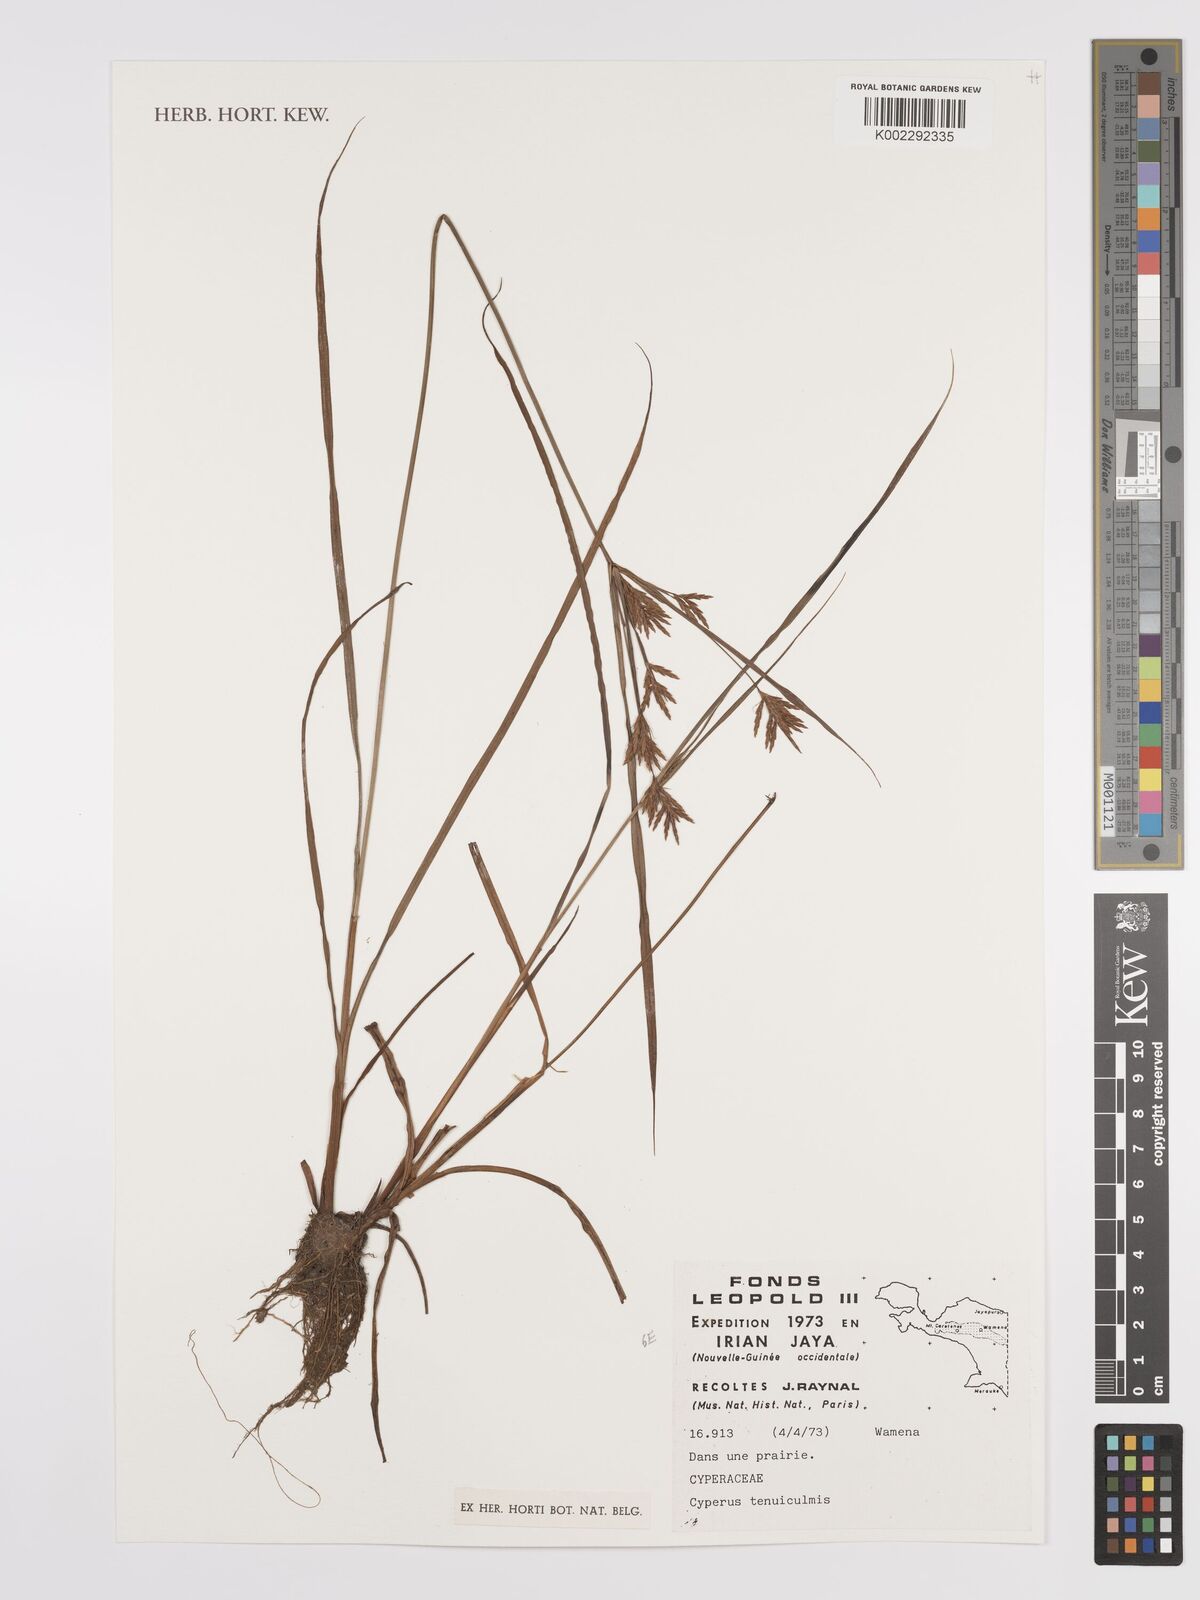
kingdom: Plantae
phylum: Tracheophyta
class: Liliopsida
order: Poales
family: Cyperaceae
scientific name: Cyperaceae
